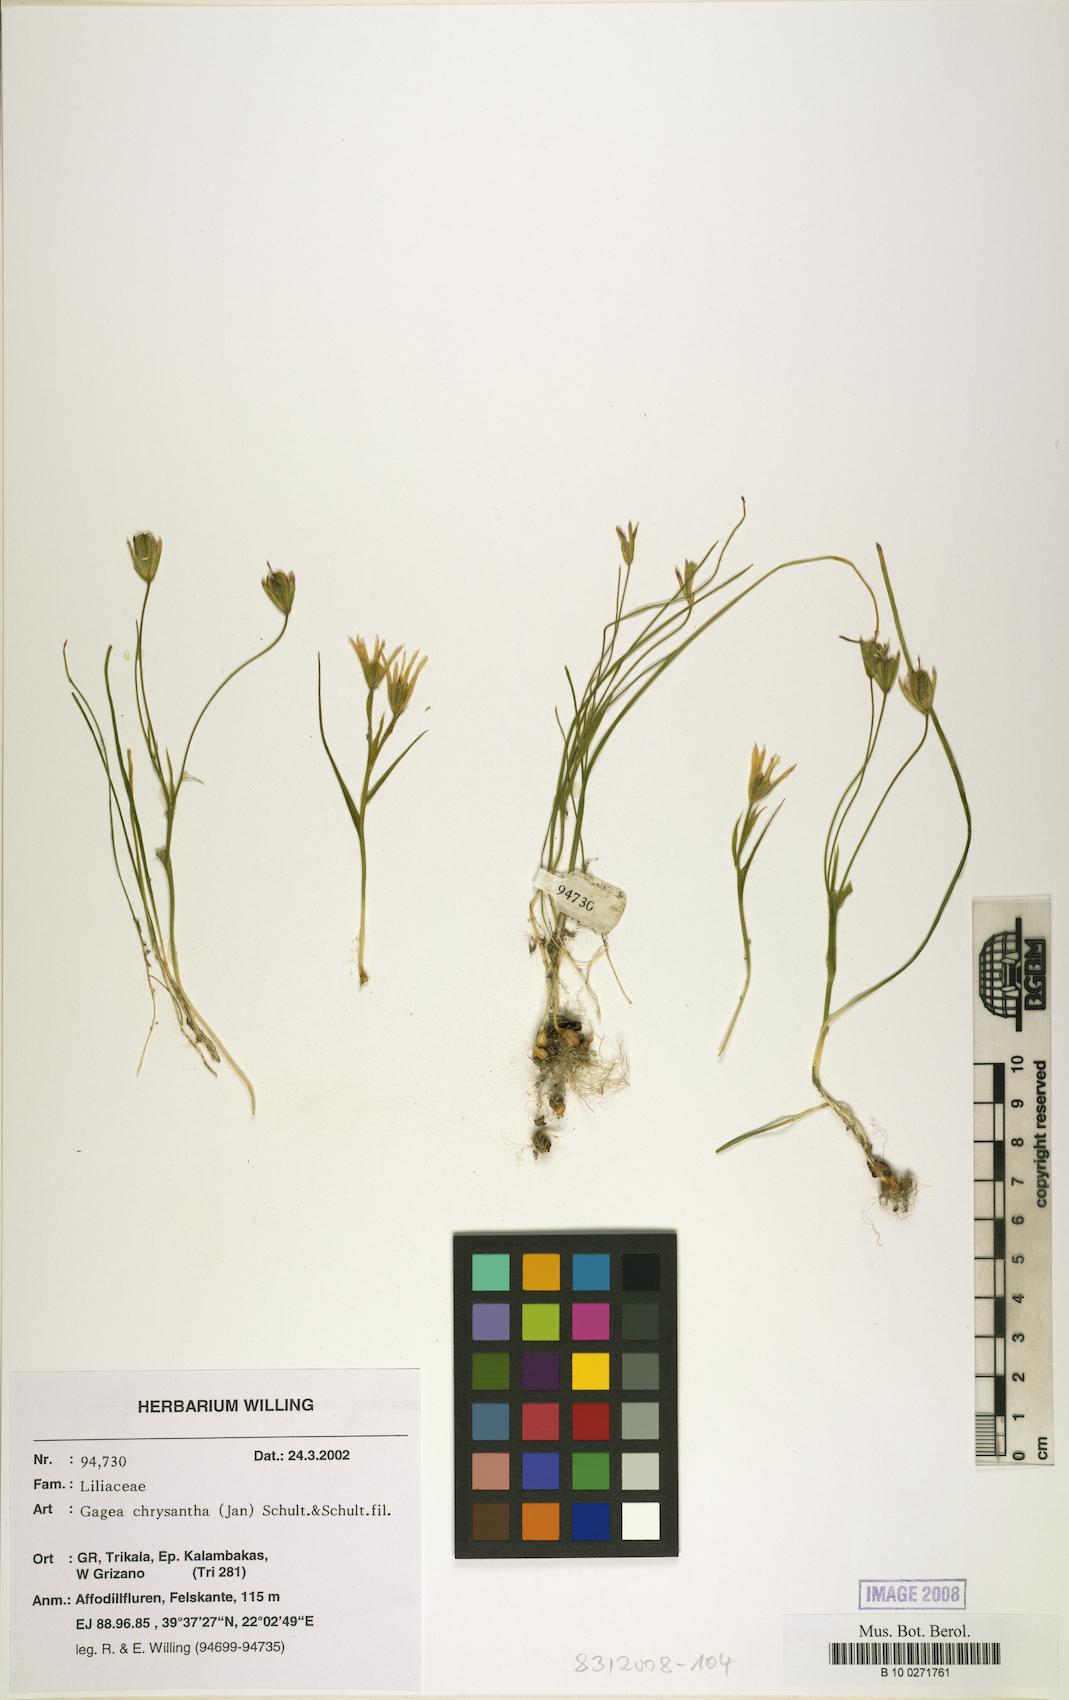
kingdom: Plantae
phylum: Tracheophyta
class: Liliopsida
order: Liliales
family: Liliaceae
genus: Gagea
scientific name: Gagea chrysantha
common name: Golden gagea
